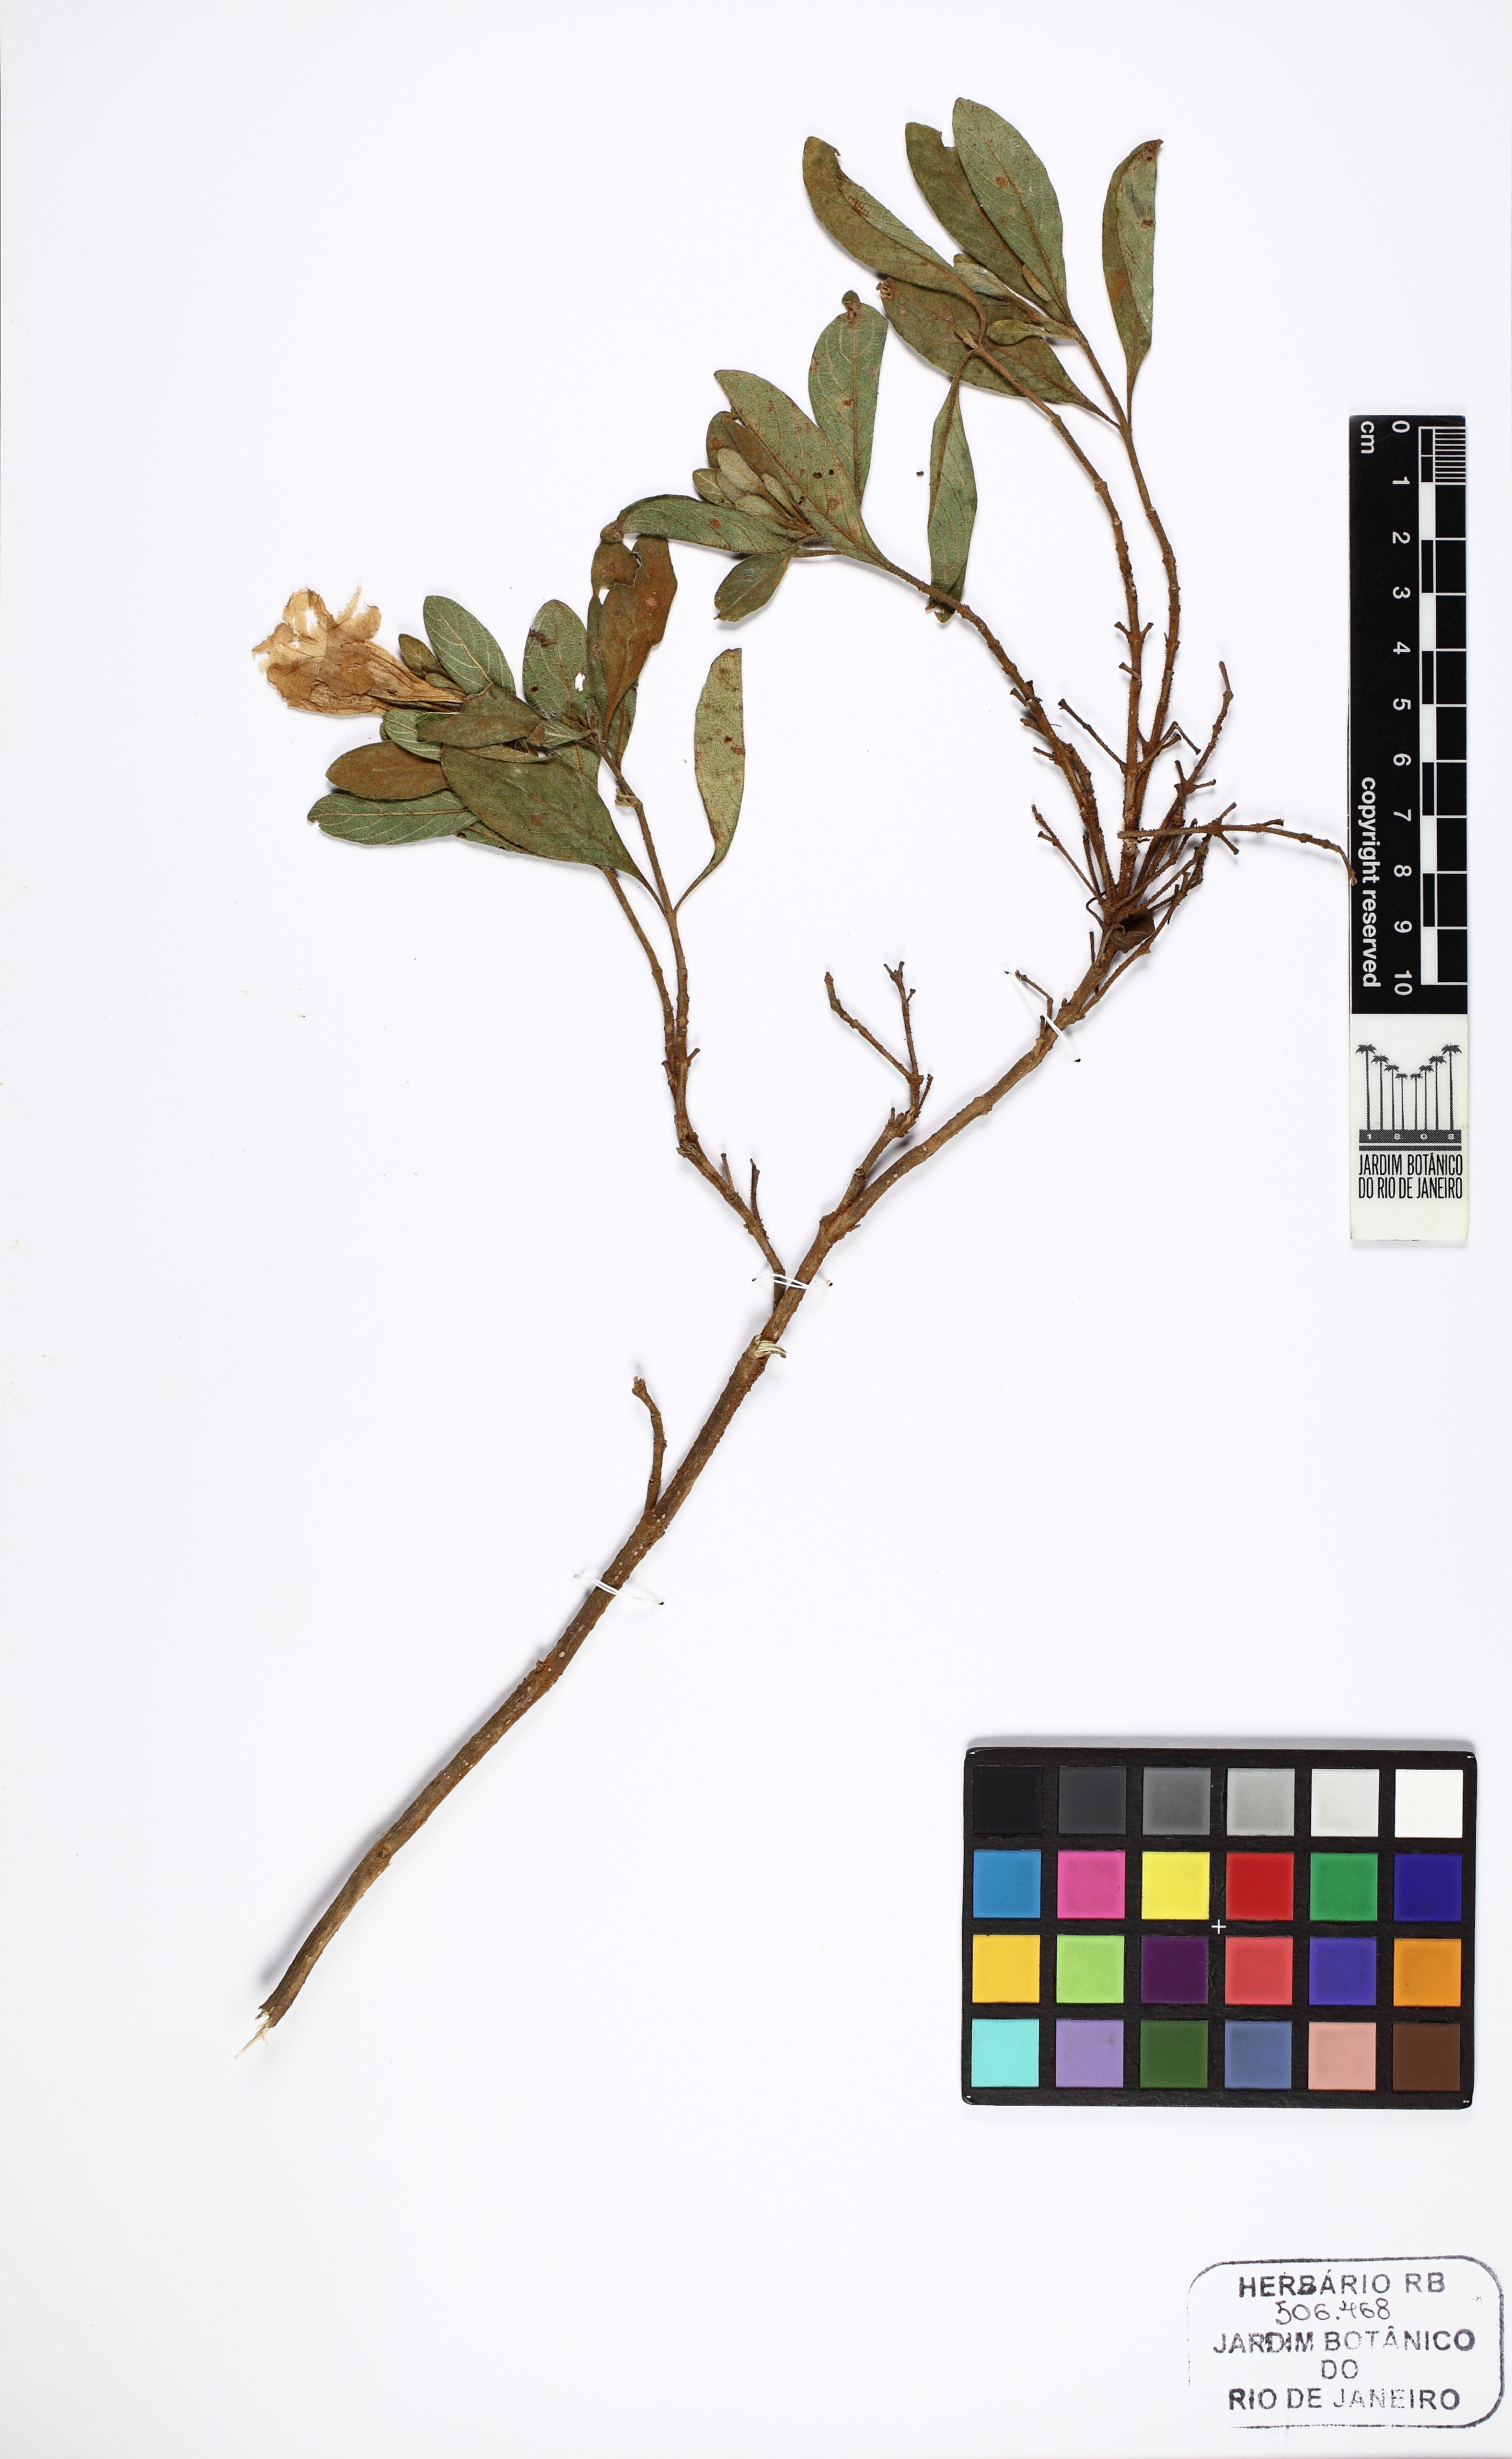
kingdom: Plantae
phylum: Tracheophyta
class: Magnoliopsida
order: Lamiales
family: Acanthaceae
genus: Ruellia
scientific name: Ruellia incomta
